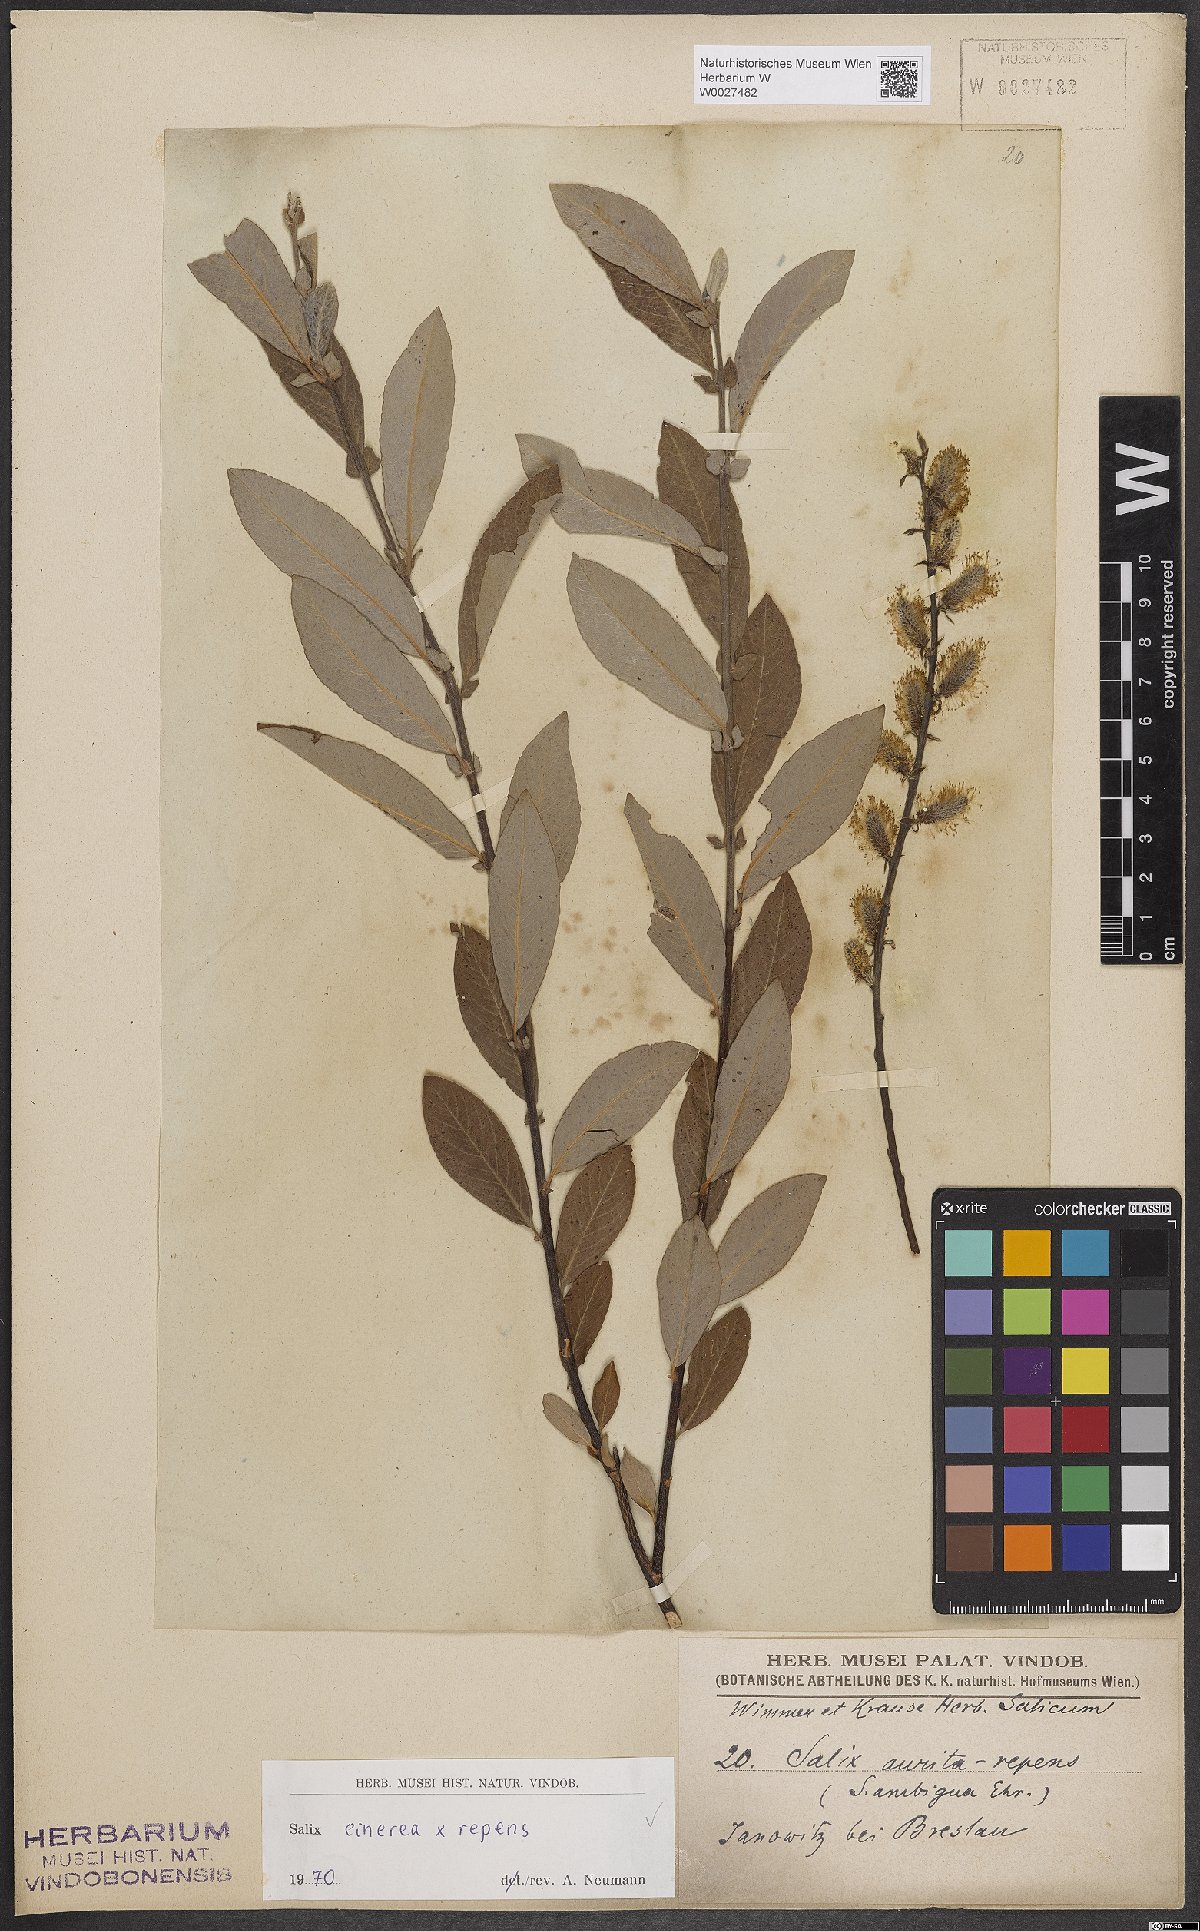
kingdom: Plantae
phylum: Tracheophyta
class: Magnoliopsida
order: Malpighiales
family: Salicaceae
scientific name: Salicaceae
